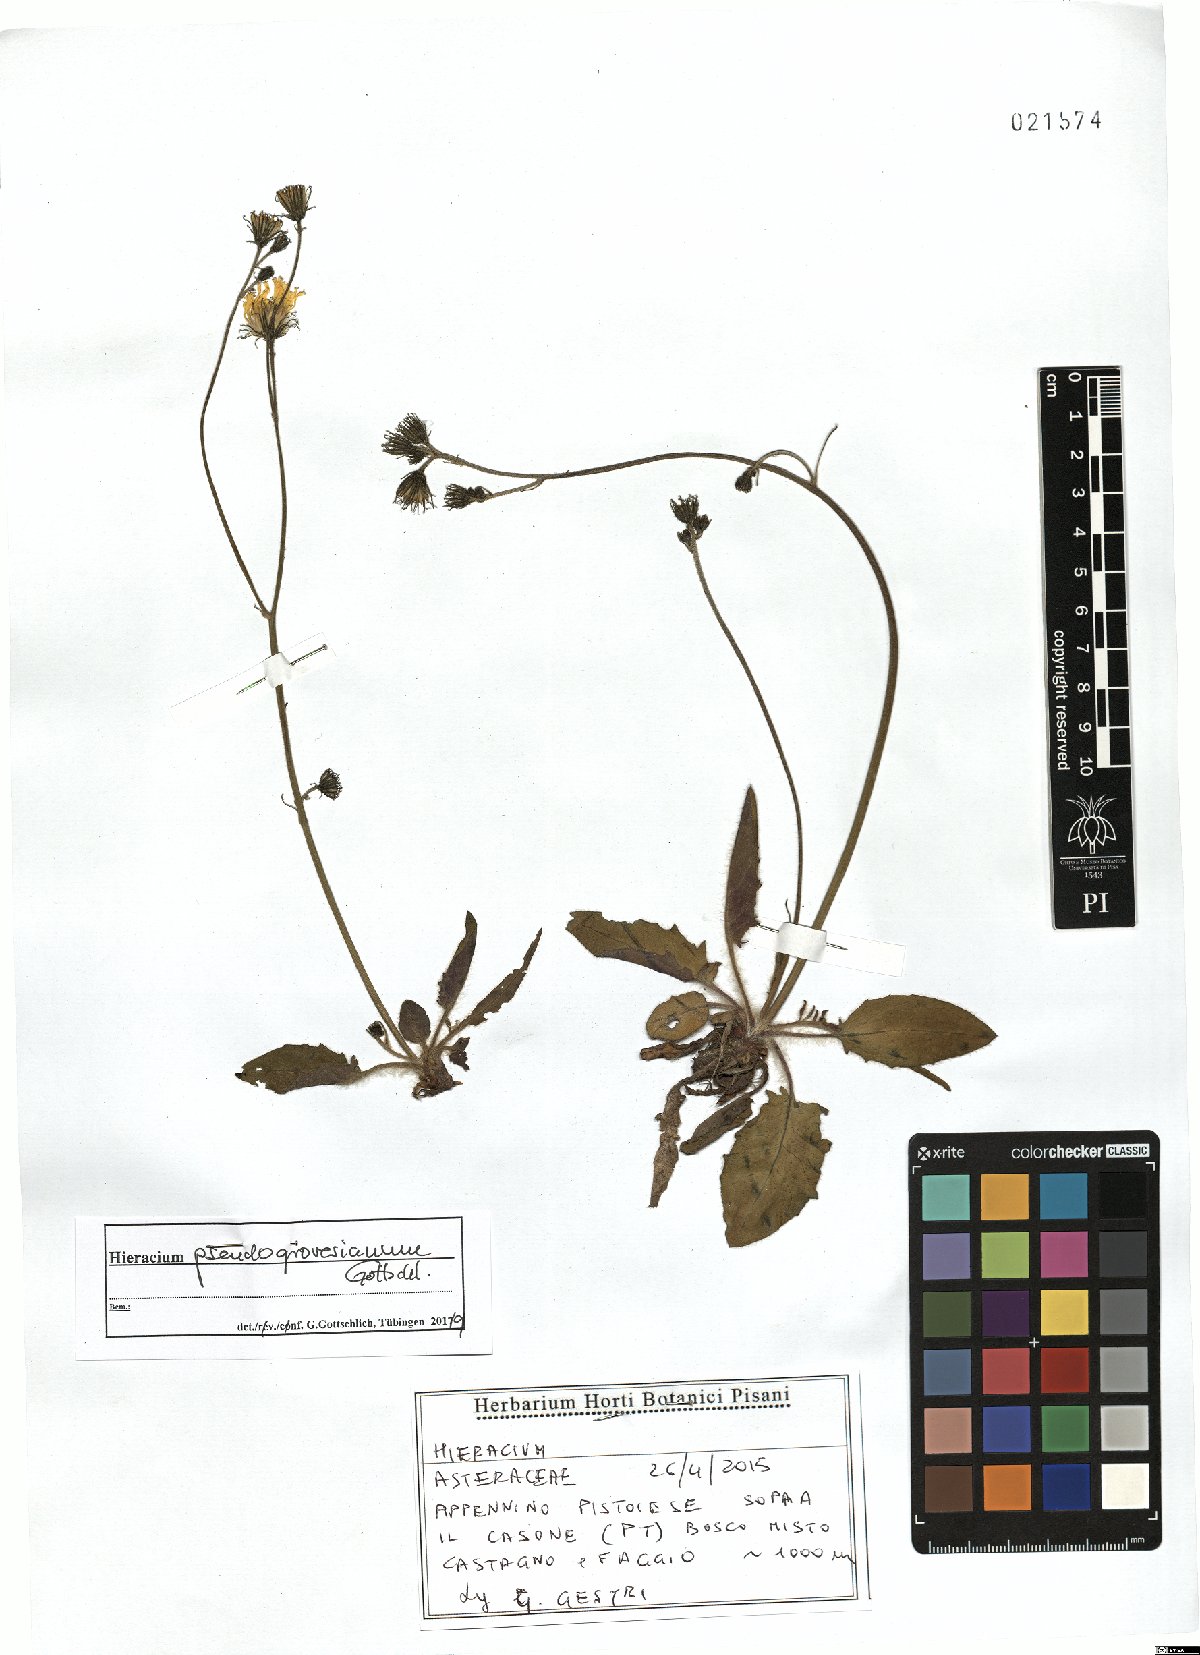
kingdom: Plantae
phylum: Tracheophyta
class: Magnoliopsida
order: Asterales
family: Asteraceae
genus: Hieracium
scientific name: Hieracium pseudogrovesianum
